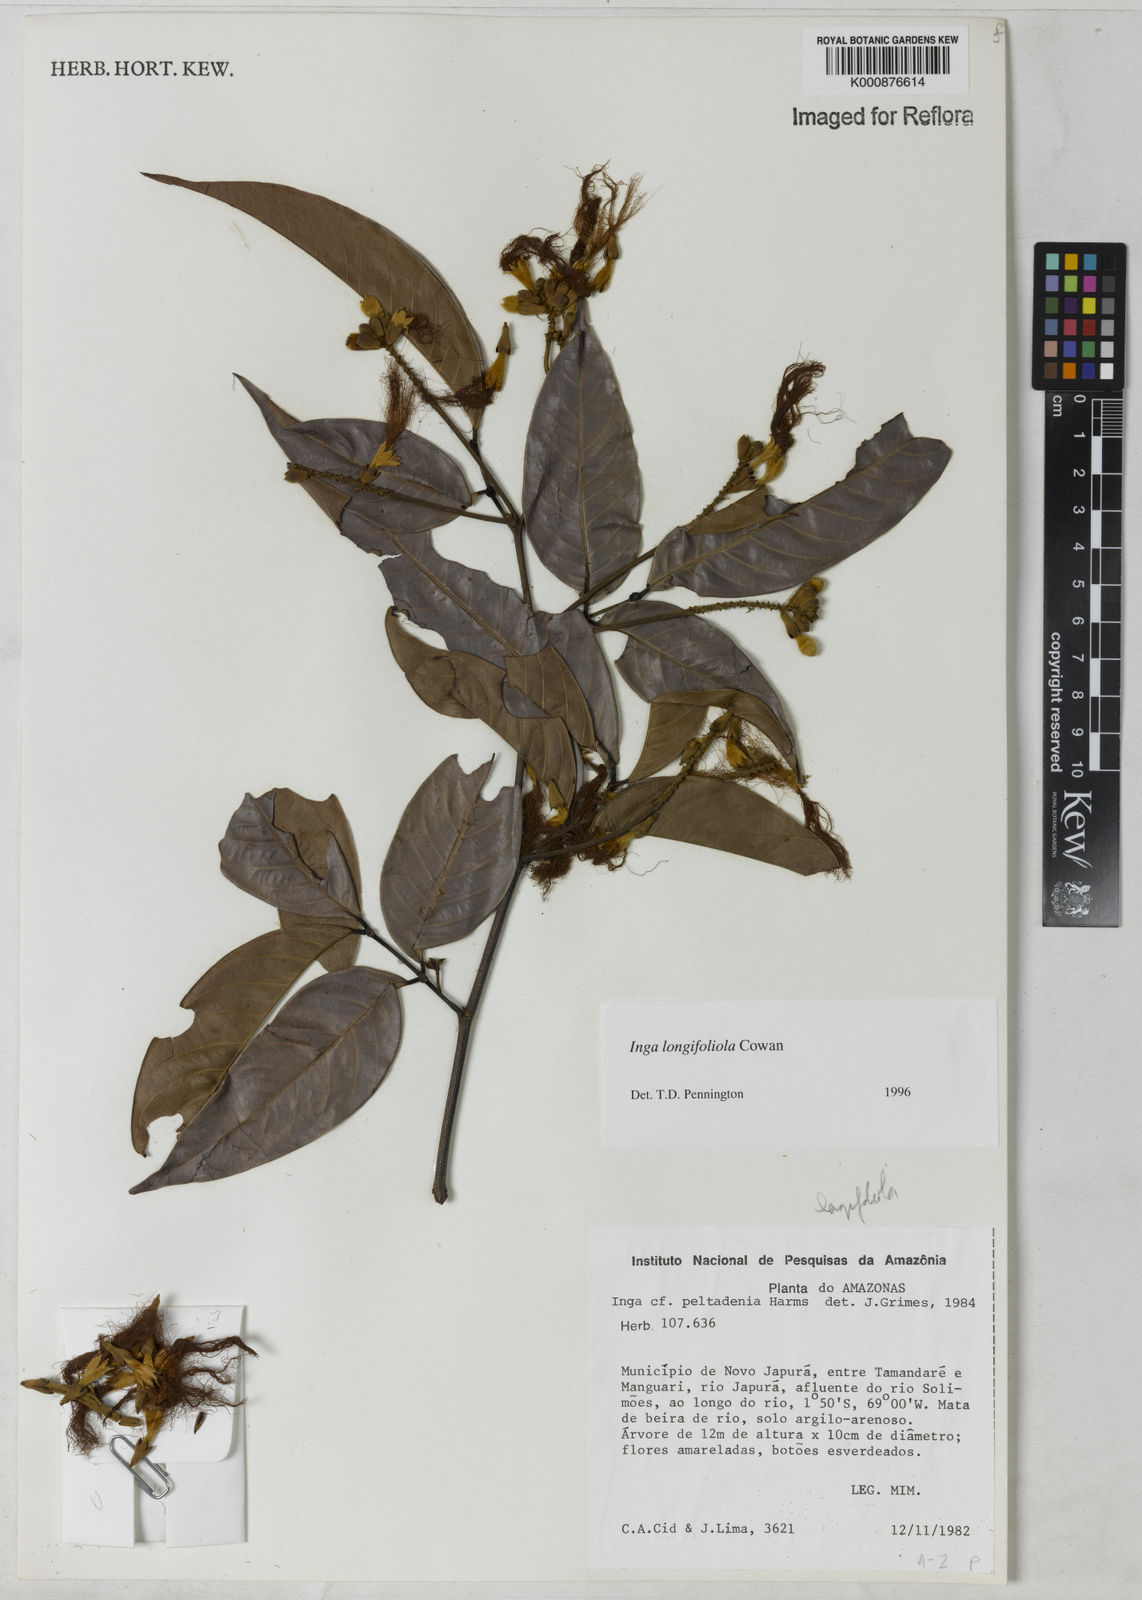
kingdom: Plantae
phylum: Tracheophyta
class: Magnoliopsida
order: Fabales
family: Fabaceae
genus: Inga
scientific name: Inga longiflora
